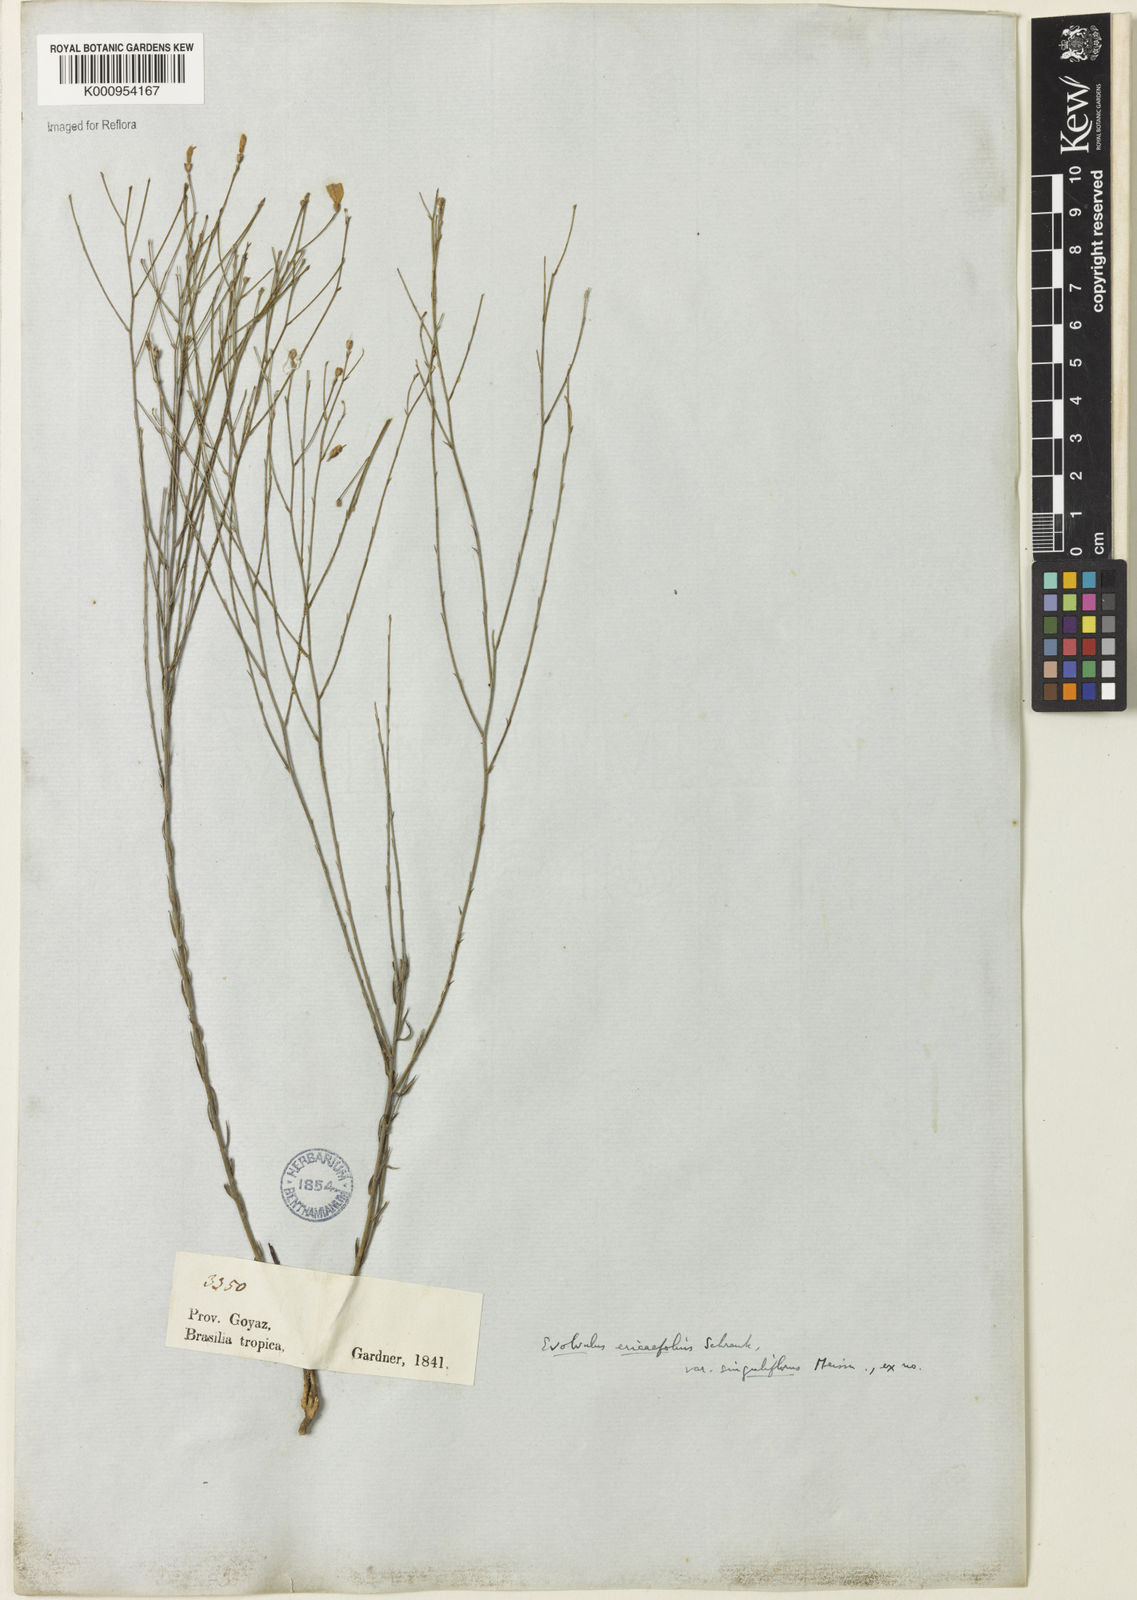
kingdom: Plantae
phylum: Tracheophyta
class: Magnoliopsida
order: Solanales
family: Convolvulaceae
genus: Evolvulus
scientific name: Evolvulus ericifolius
